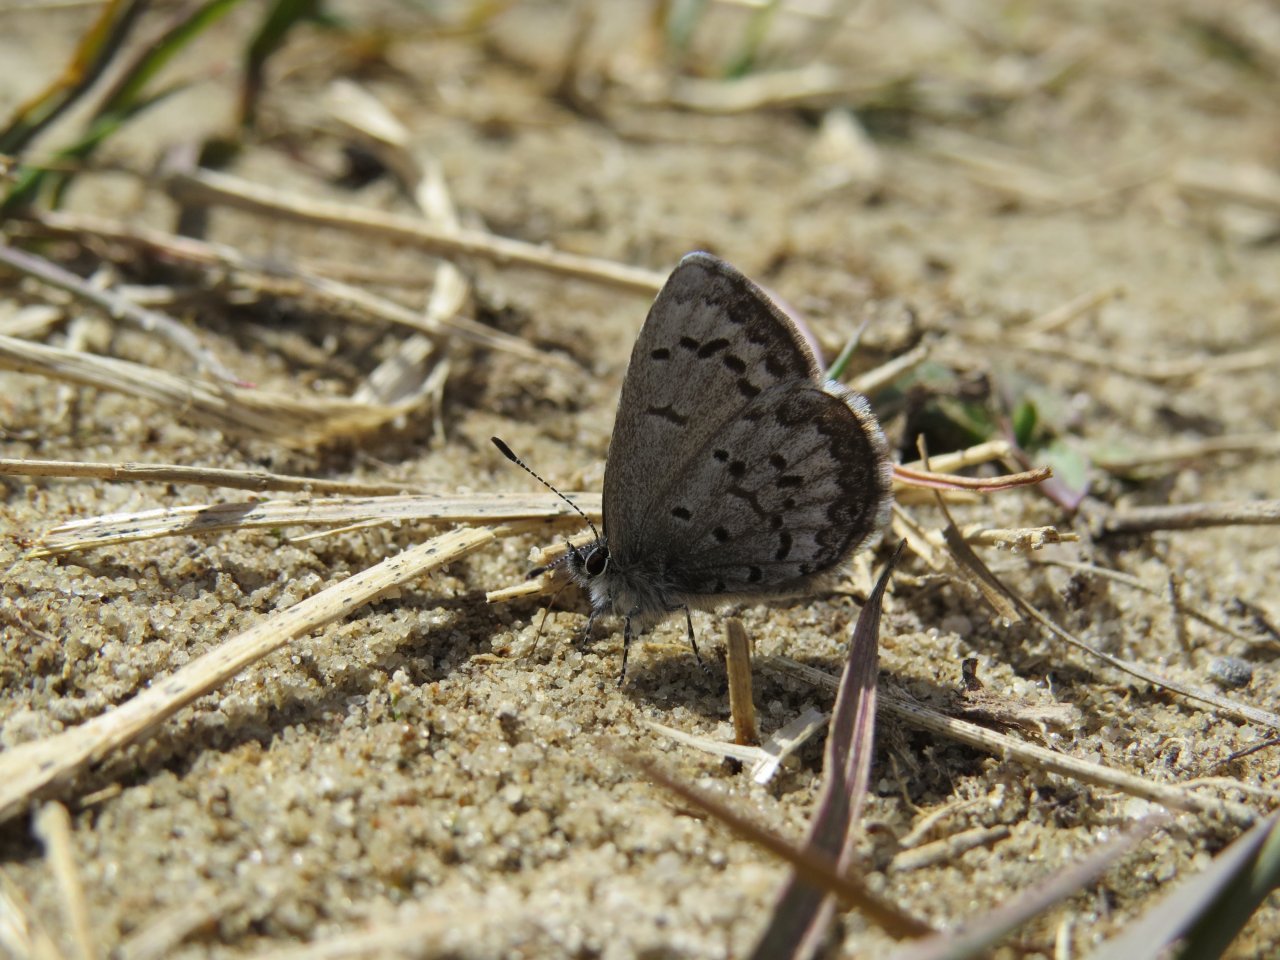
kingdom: Animalia
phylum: Arthropoda
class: Insecta
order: Lepidoptera
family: Lycaenidae
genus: Celastrina
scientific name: Celastrina ladon
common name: Spring Azure
